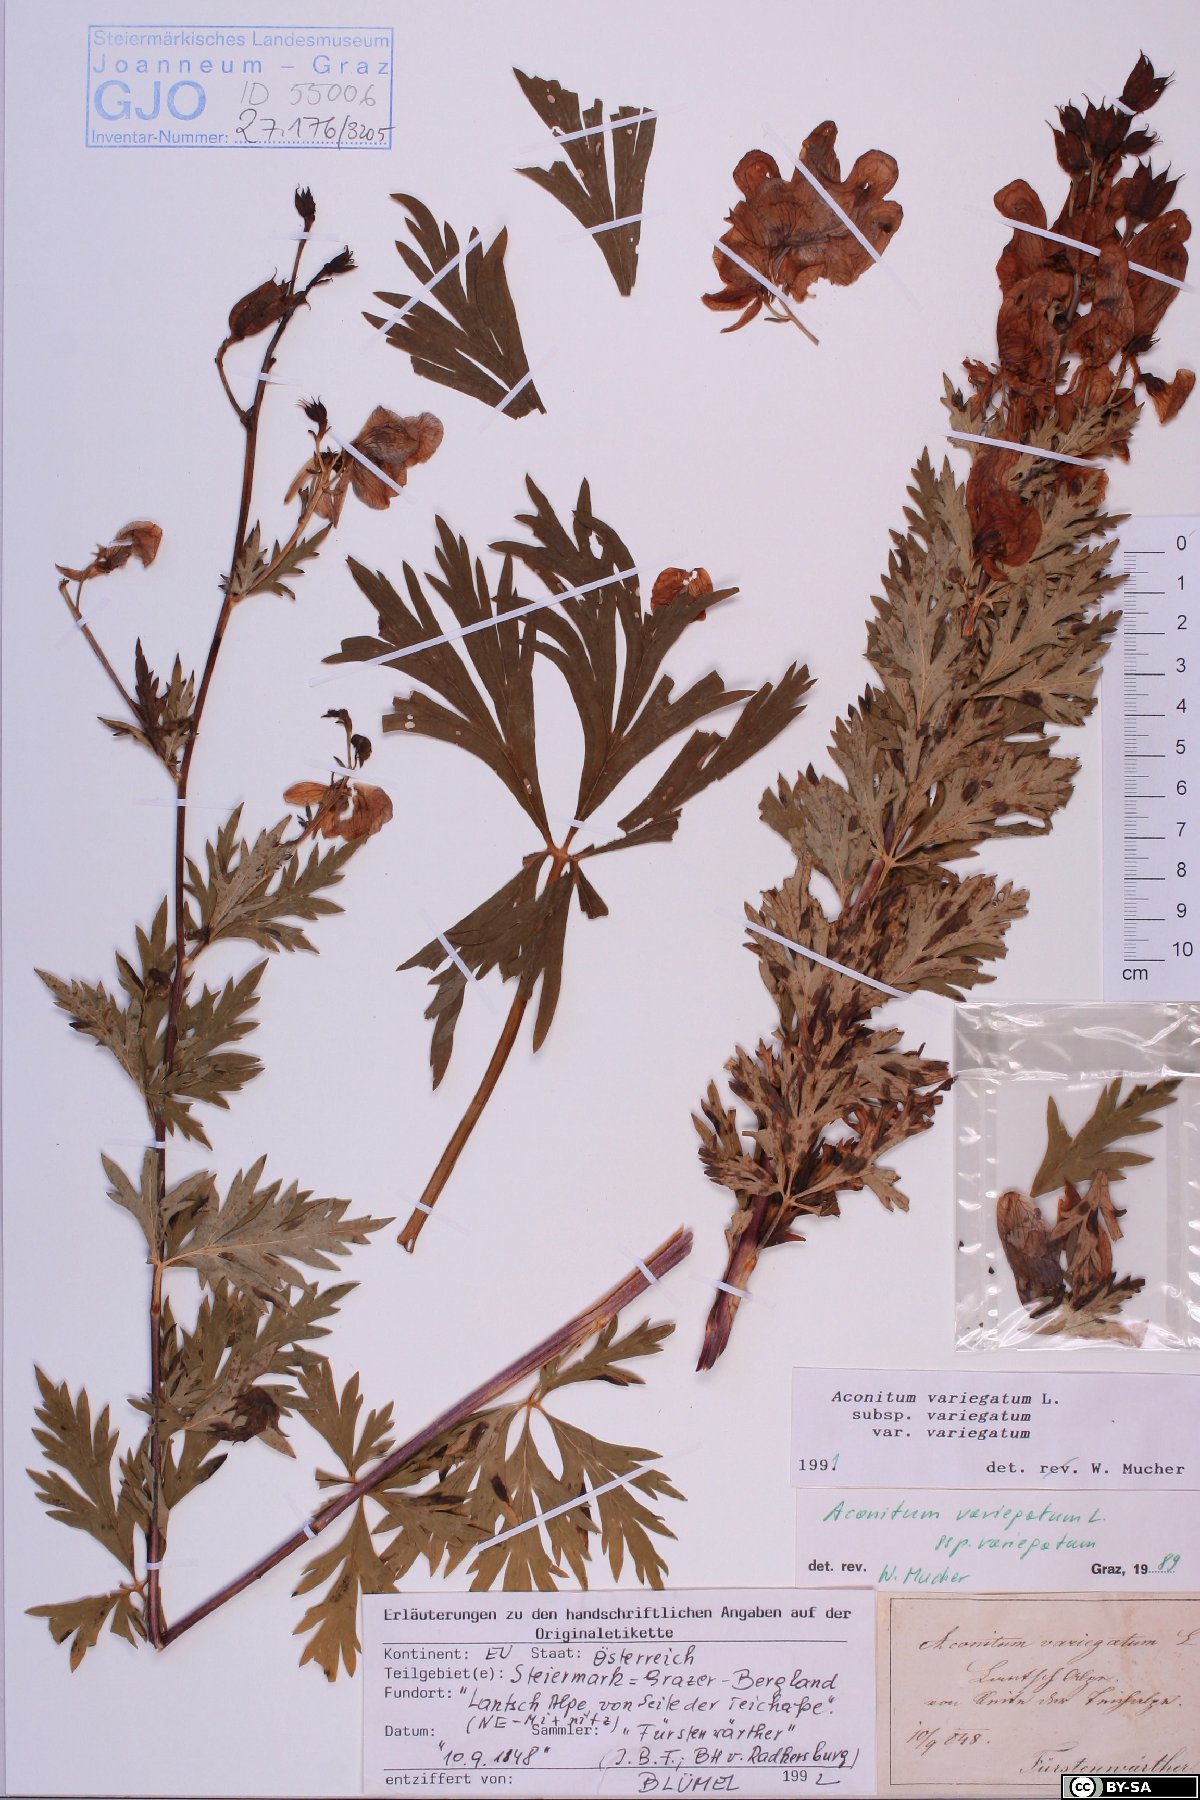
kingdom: Plantae
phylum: Tracheophyta
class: Magnoliopsida
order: Ranunculales
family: Ranunculaceae
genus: Aconitum
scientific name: Aconitum variegatum
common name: Manchurian monkshood
